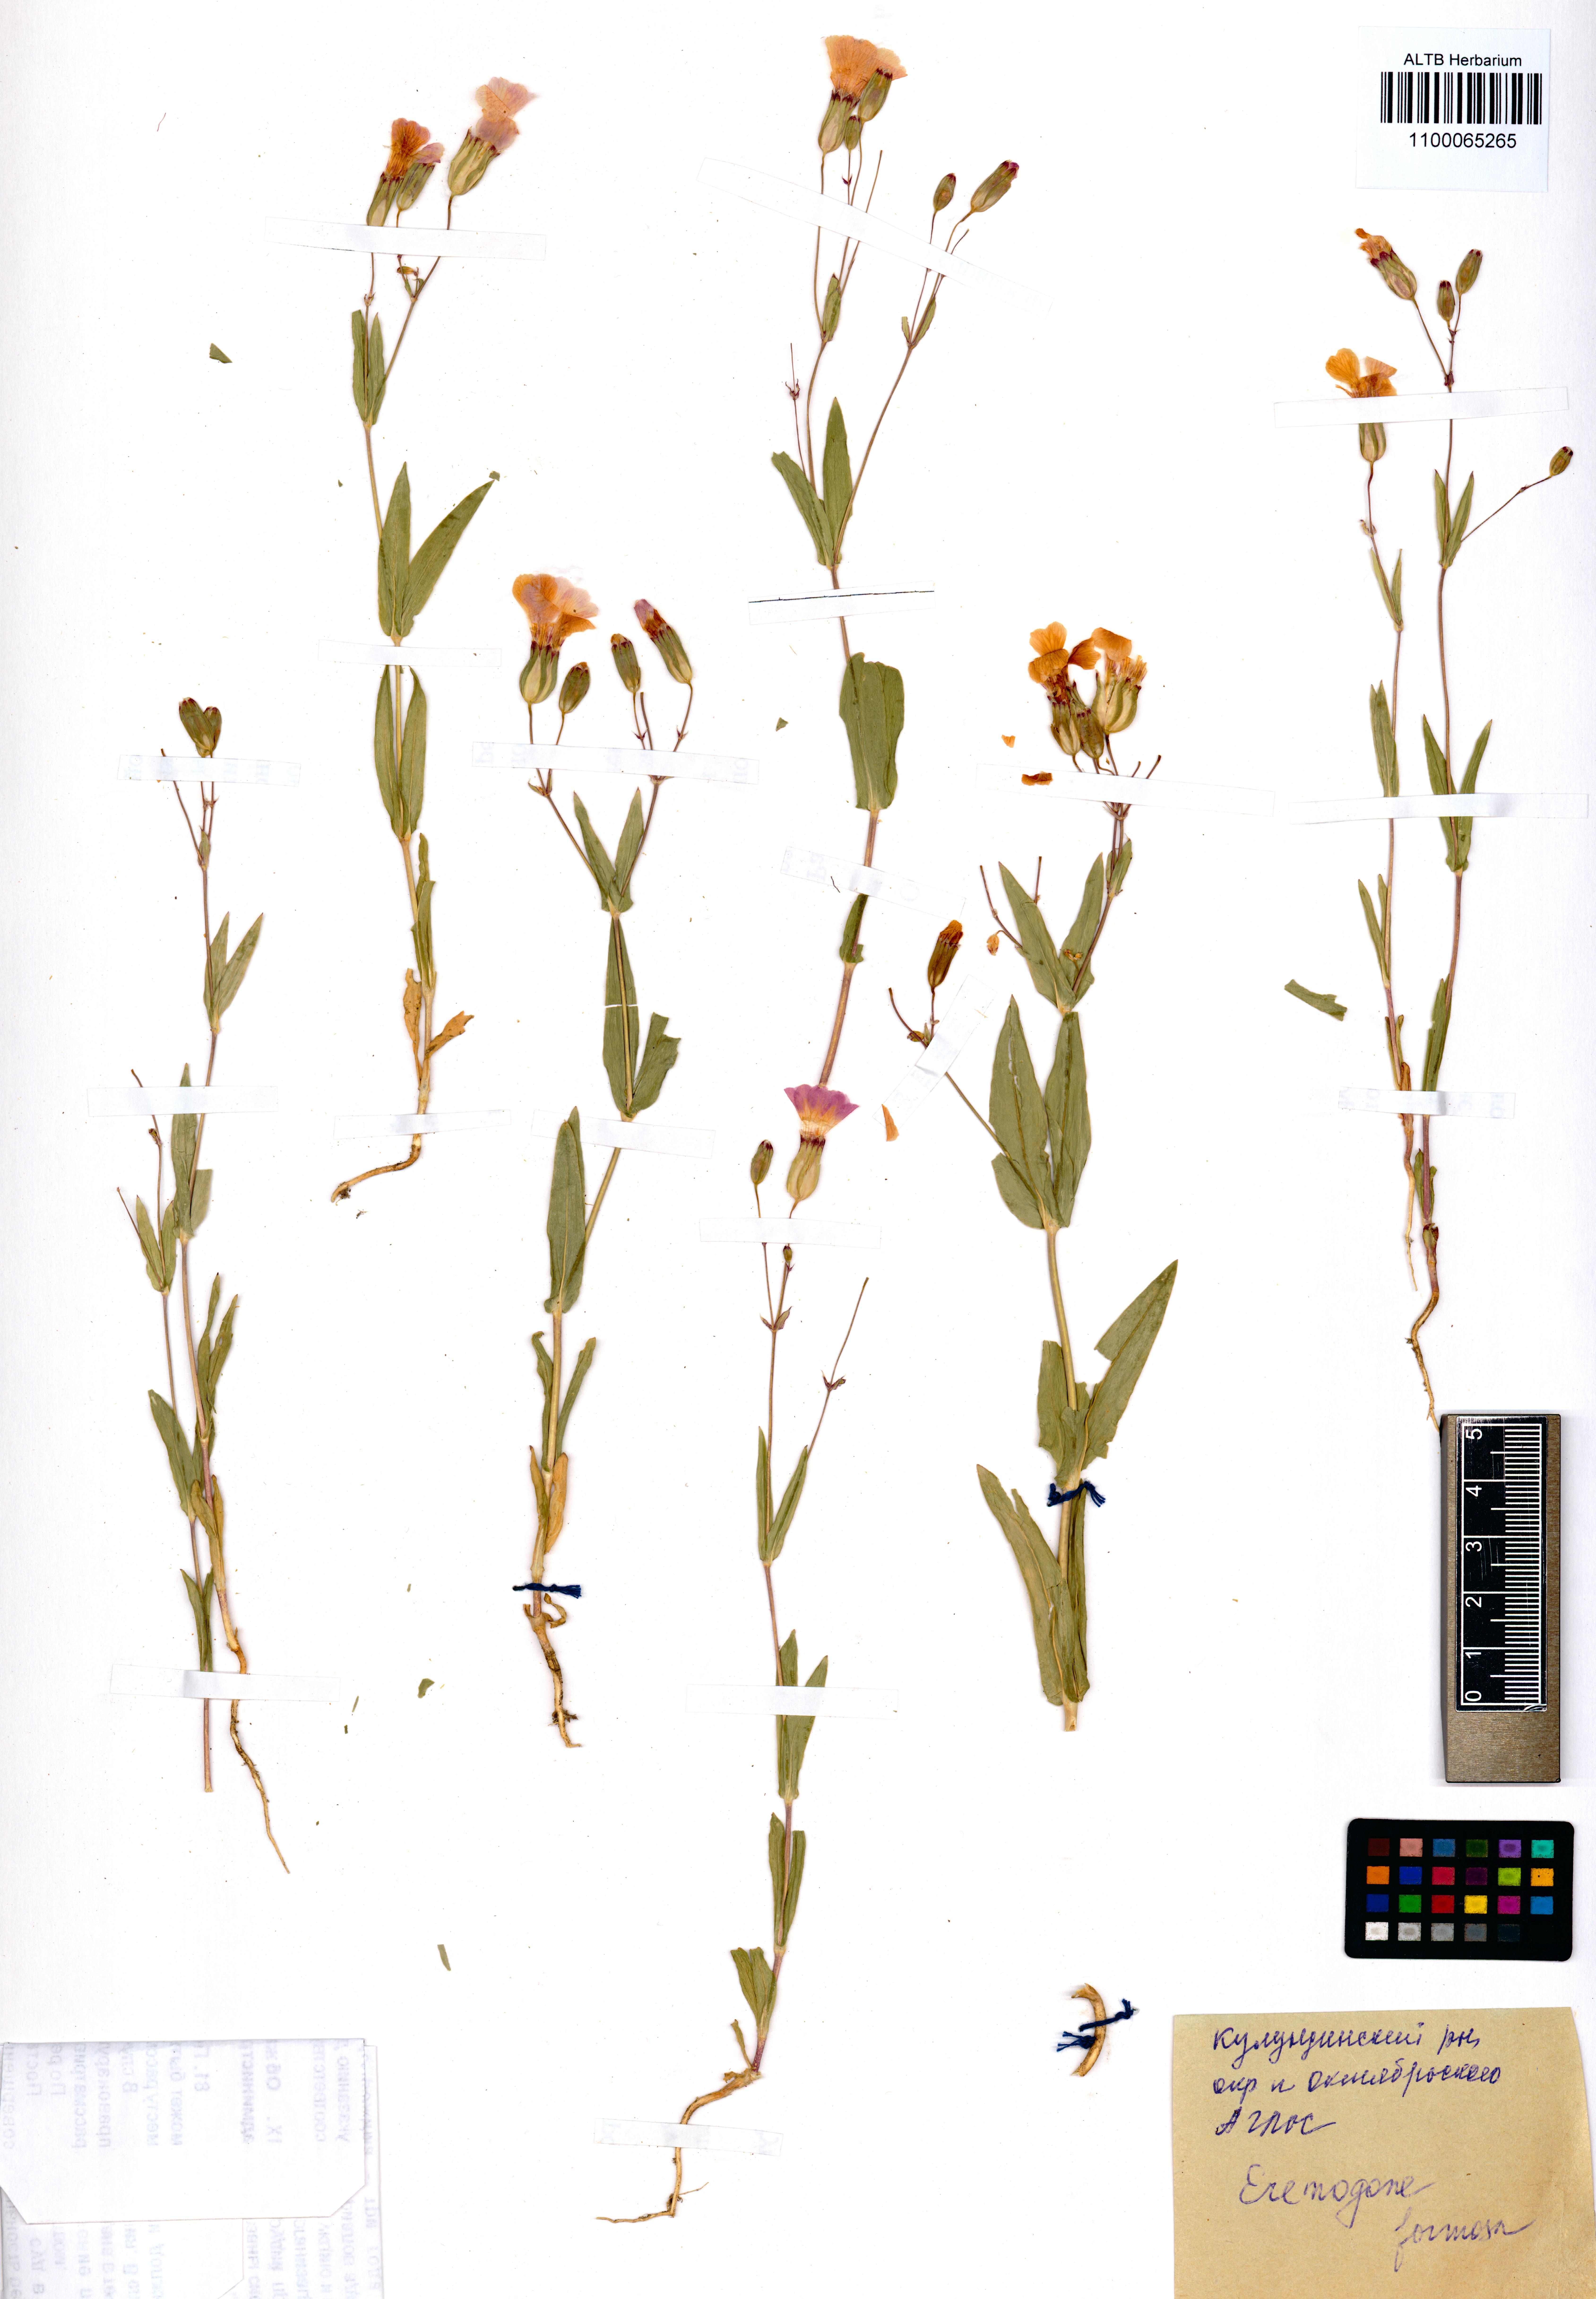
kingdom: Plantae
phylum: Tracheophyta
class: Magnoliopsida
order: Caryophyllales
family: Caryophyllaceae
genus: Eremogone
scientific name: Eremogone formosa
